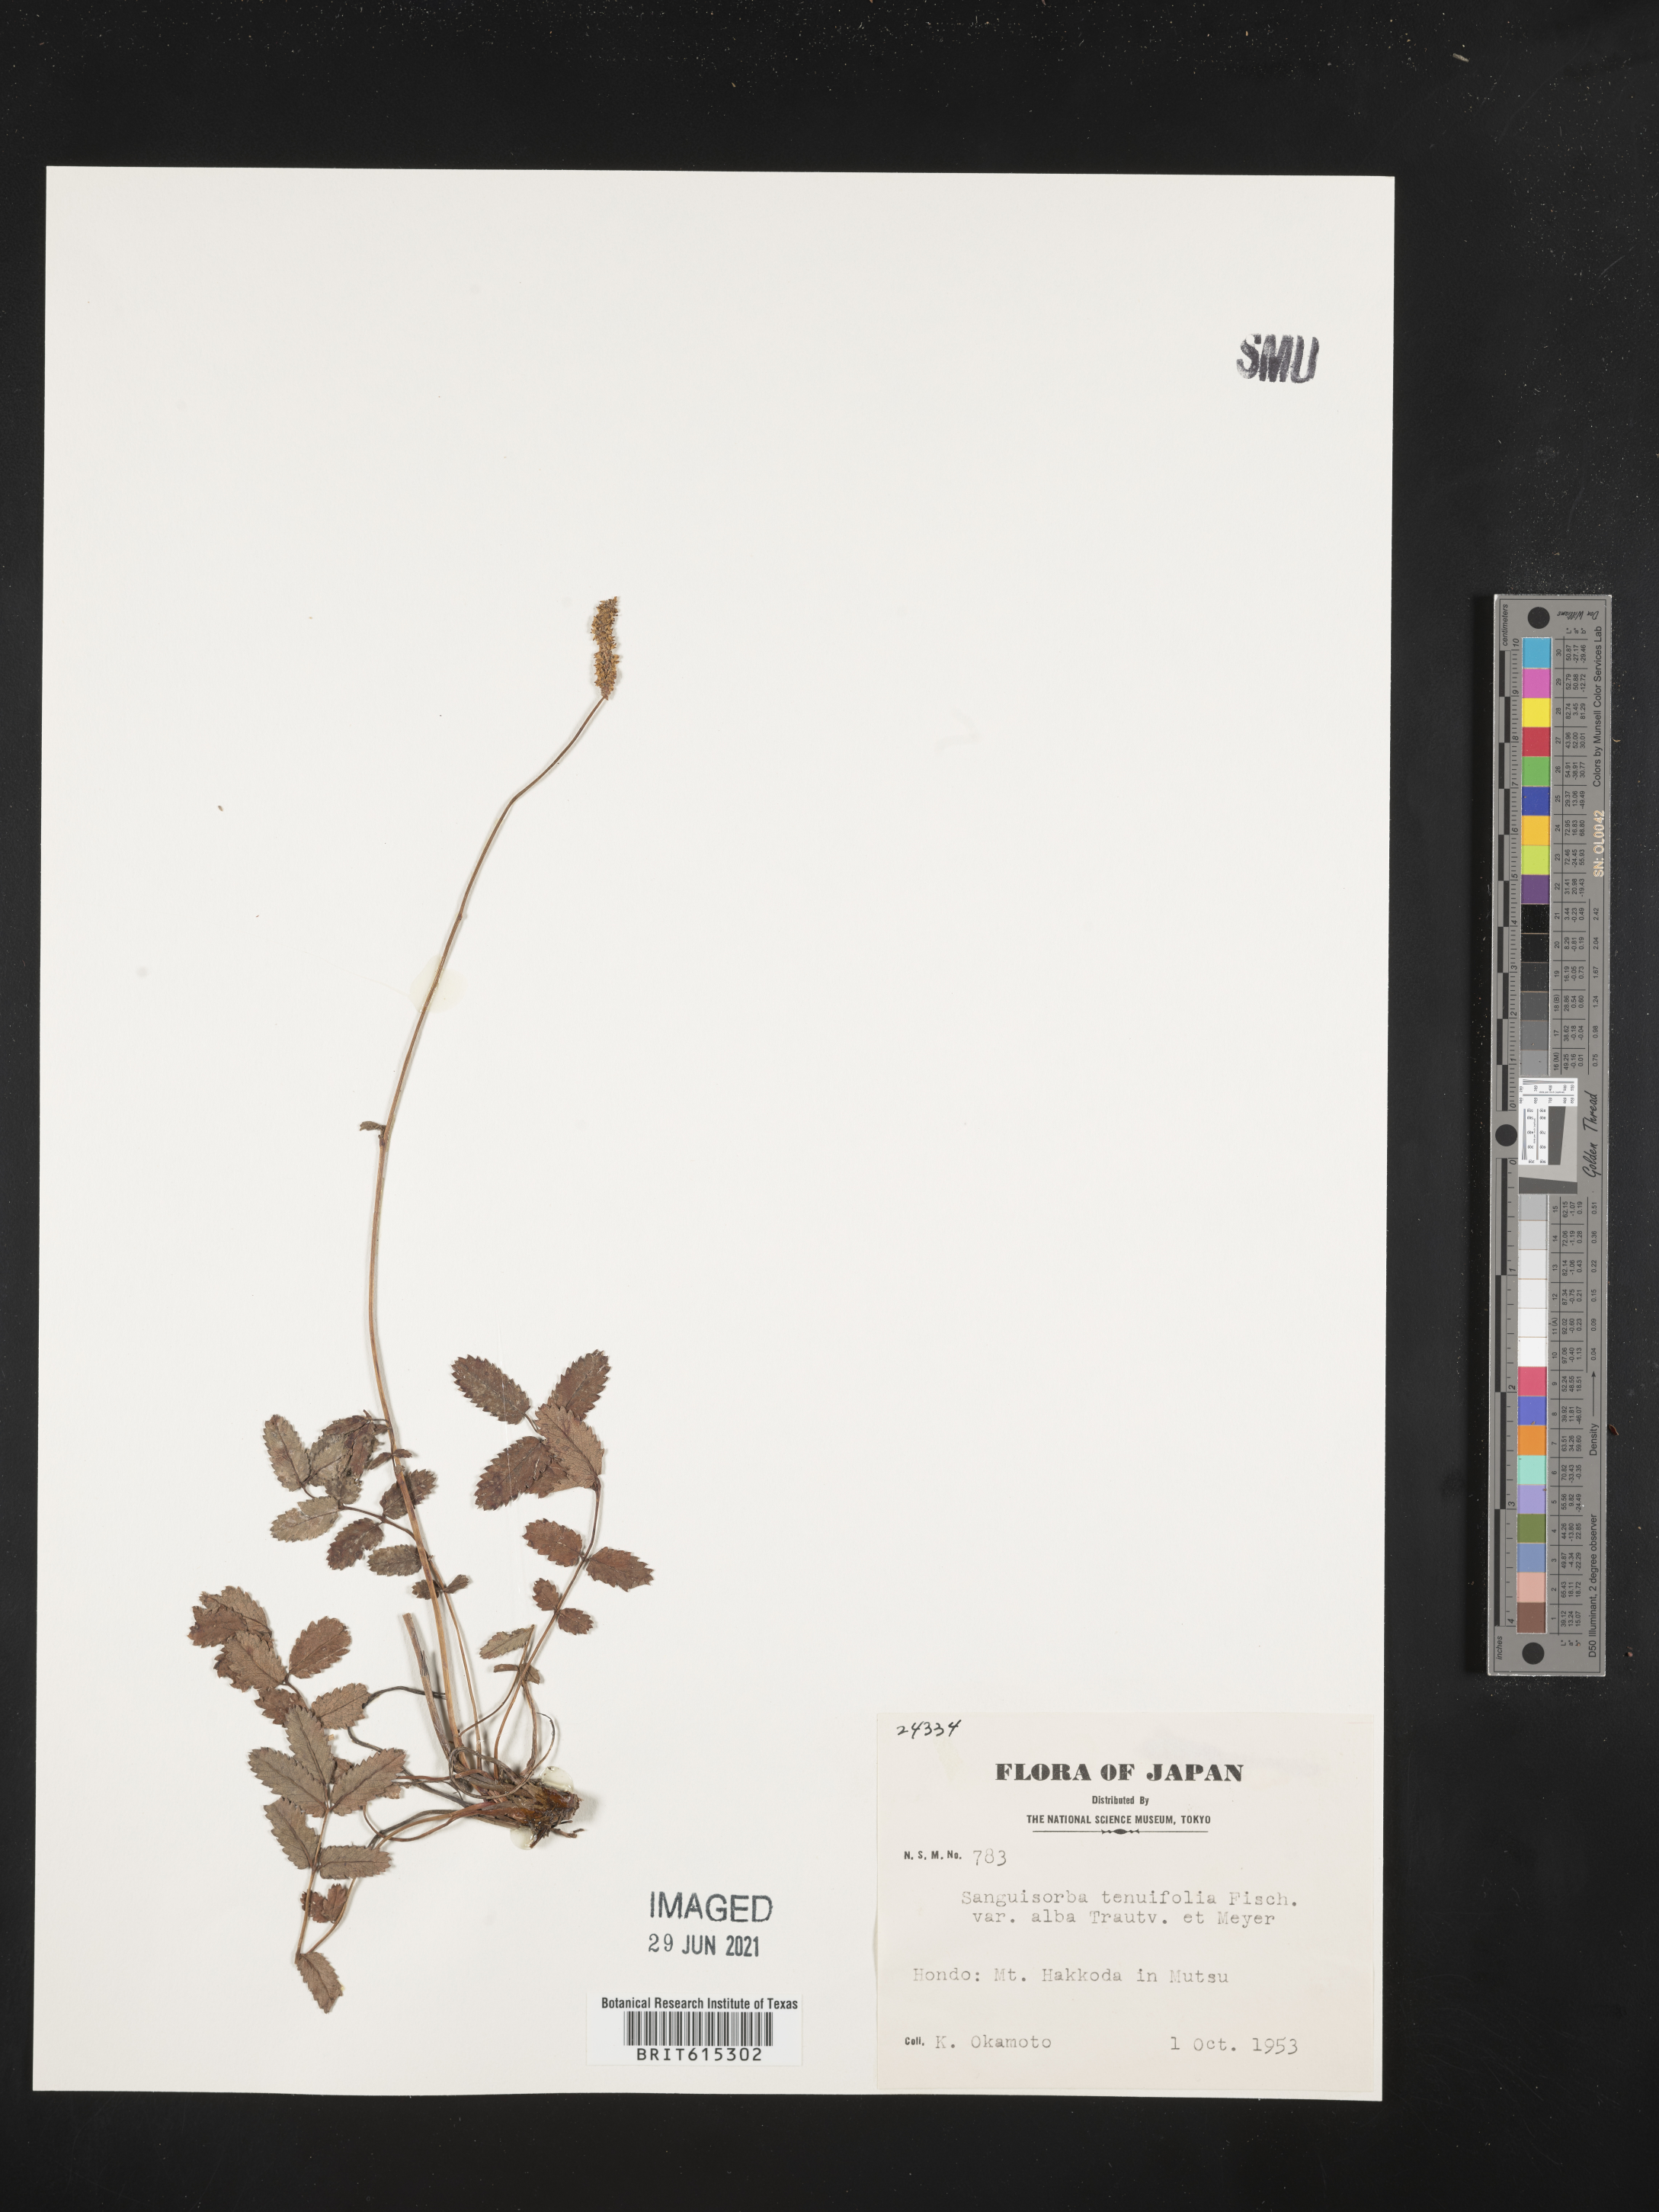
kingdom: Plantae
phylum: Tracheophyta
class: Magnoliopsida
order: Rosales
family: Rosaceae
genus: Poterium
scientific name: Poterium tenuifolium
